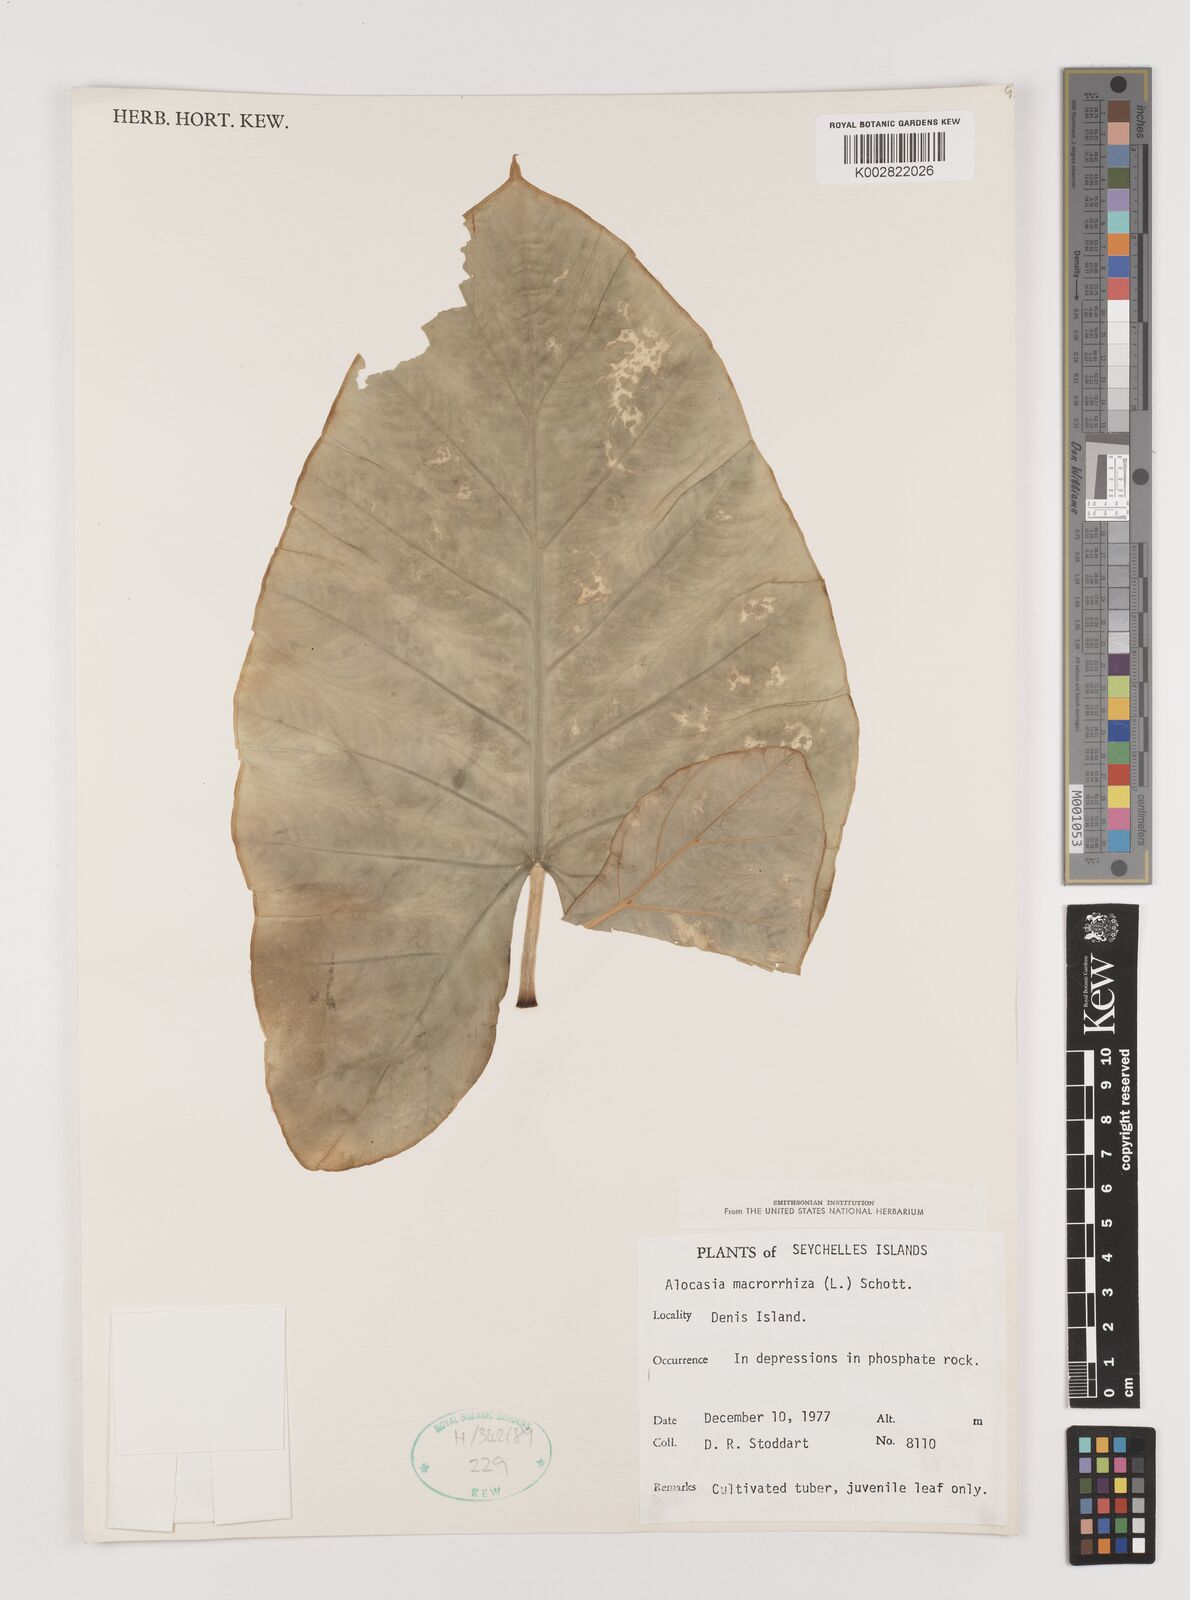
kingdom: Plantae
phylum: Tracheophyta
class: Liliopsida
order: Alismatales
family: Araceae
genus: Alocasia
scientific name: Alocasia macrorrhizos
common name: Giant taro
